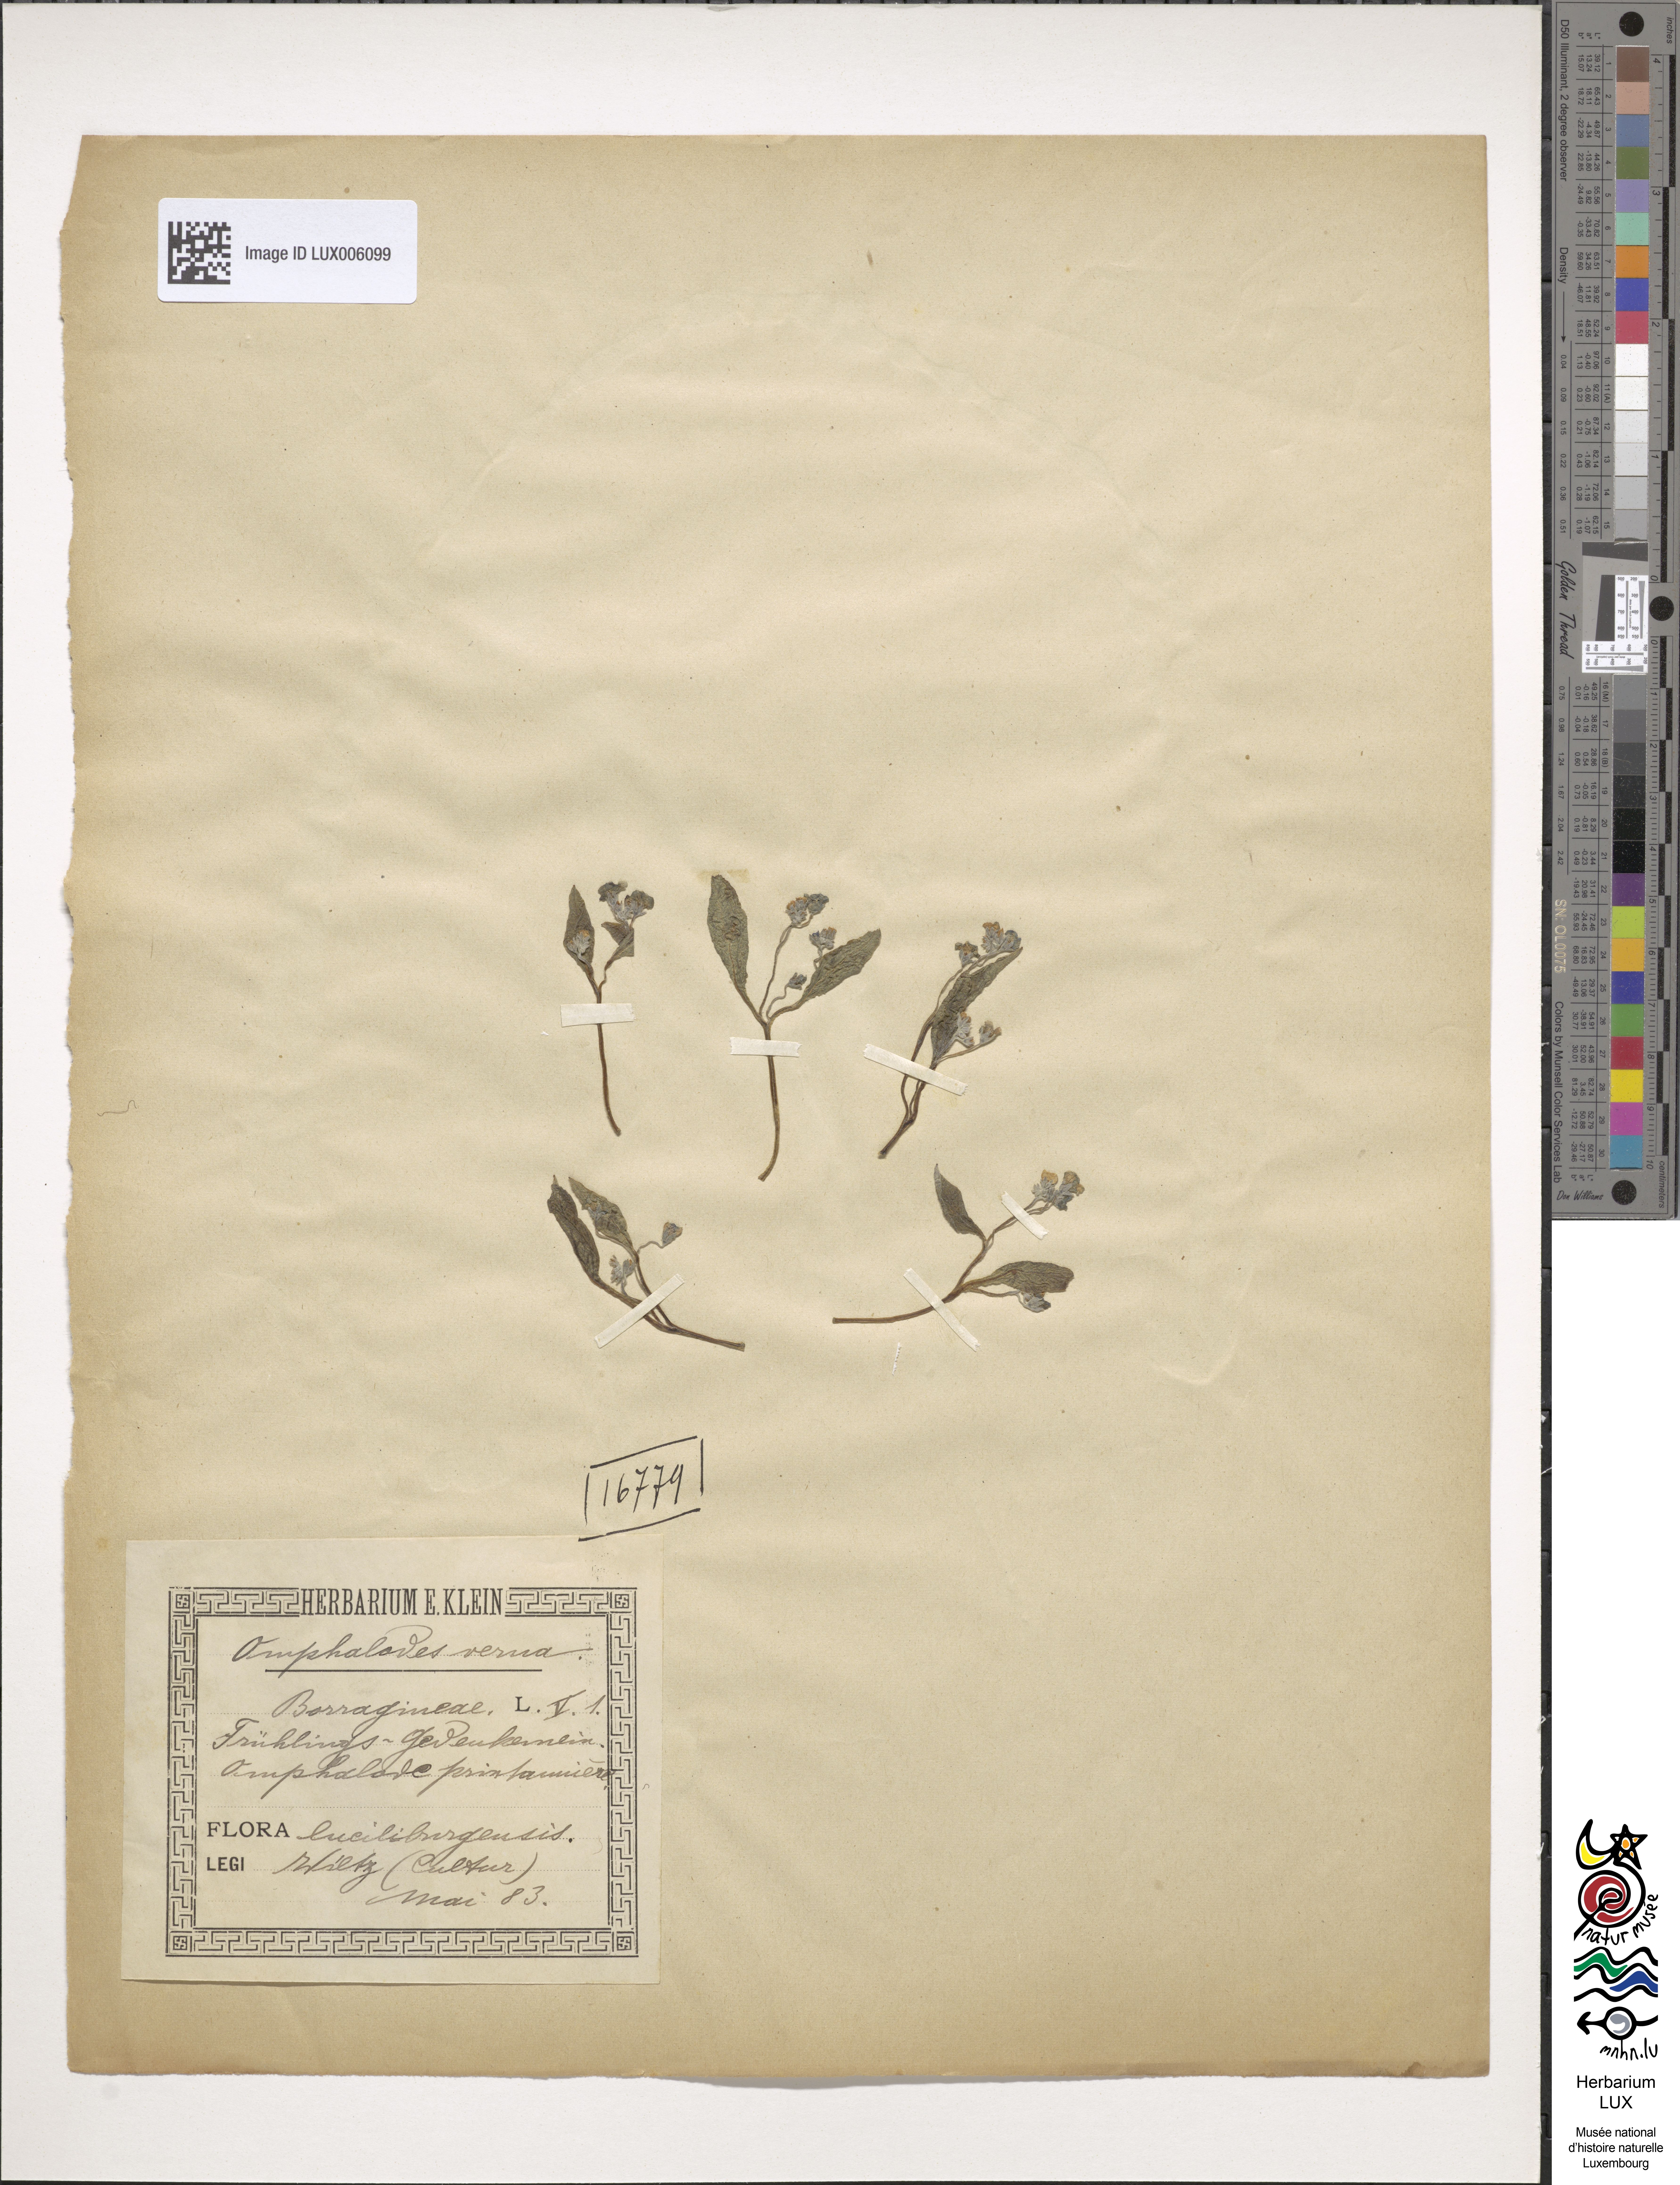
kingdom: Plantae
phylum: Tracheophyta
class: Magnoliopsida
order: Boraginales
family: Boraginaceae
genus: Omphalodes
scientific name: Omphalodes verna
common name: Blue-eyed-mary
